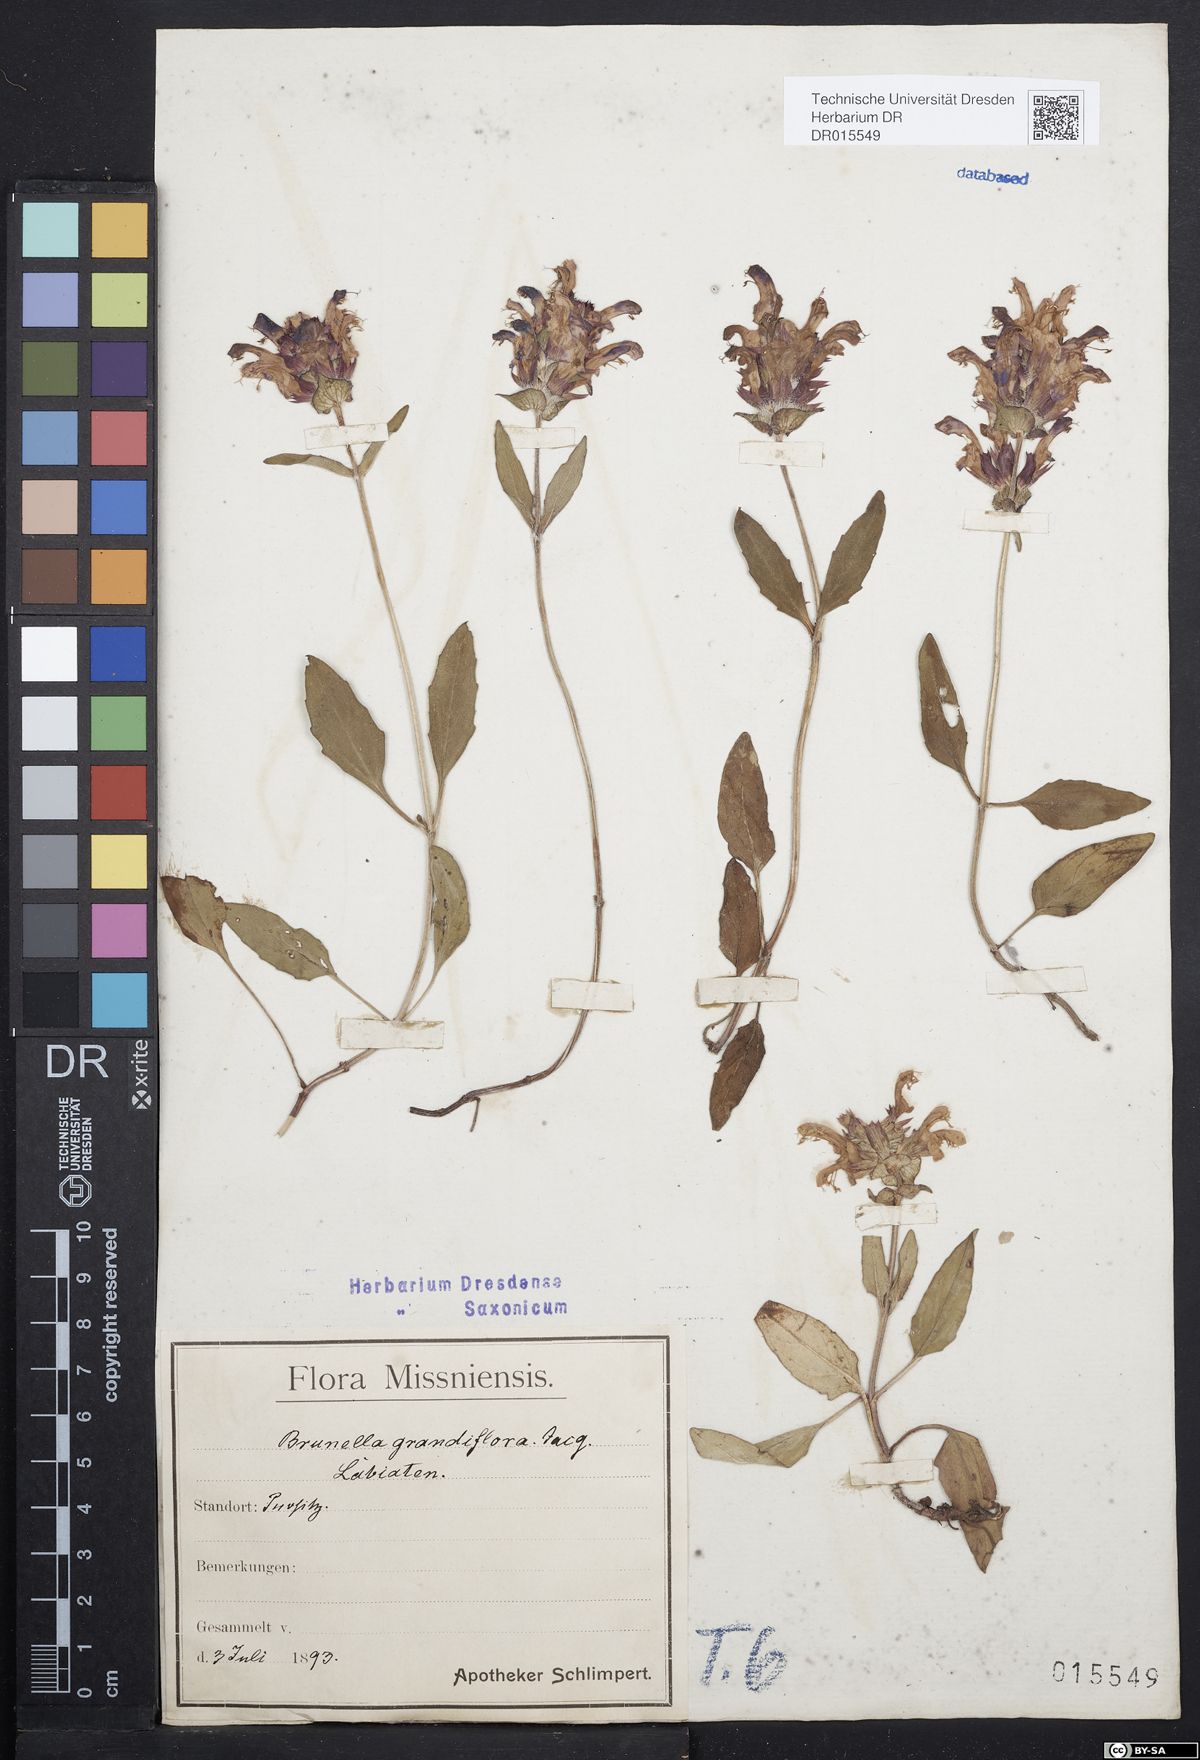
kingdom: Plantae
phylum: Tracheophyta
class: Magnoliopsida
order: Lamiales
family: Lamiaceae
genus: Prunella
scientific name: Prunella grandiflora
